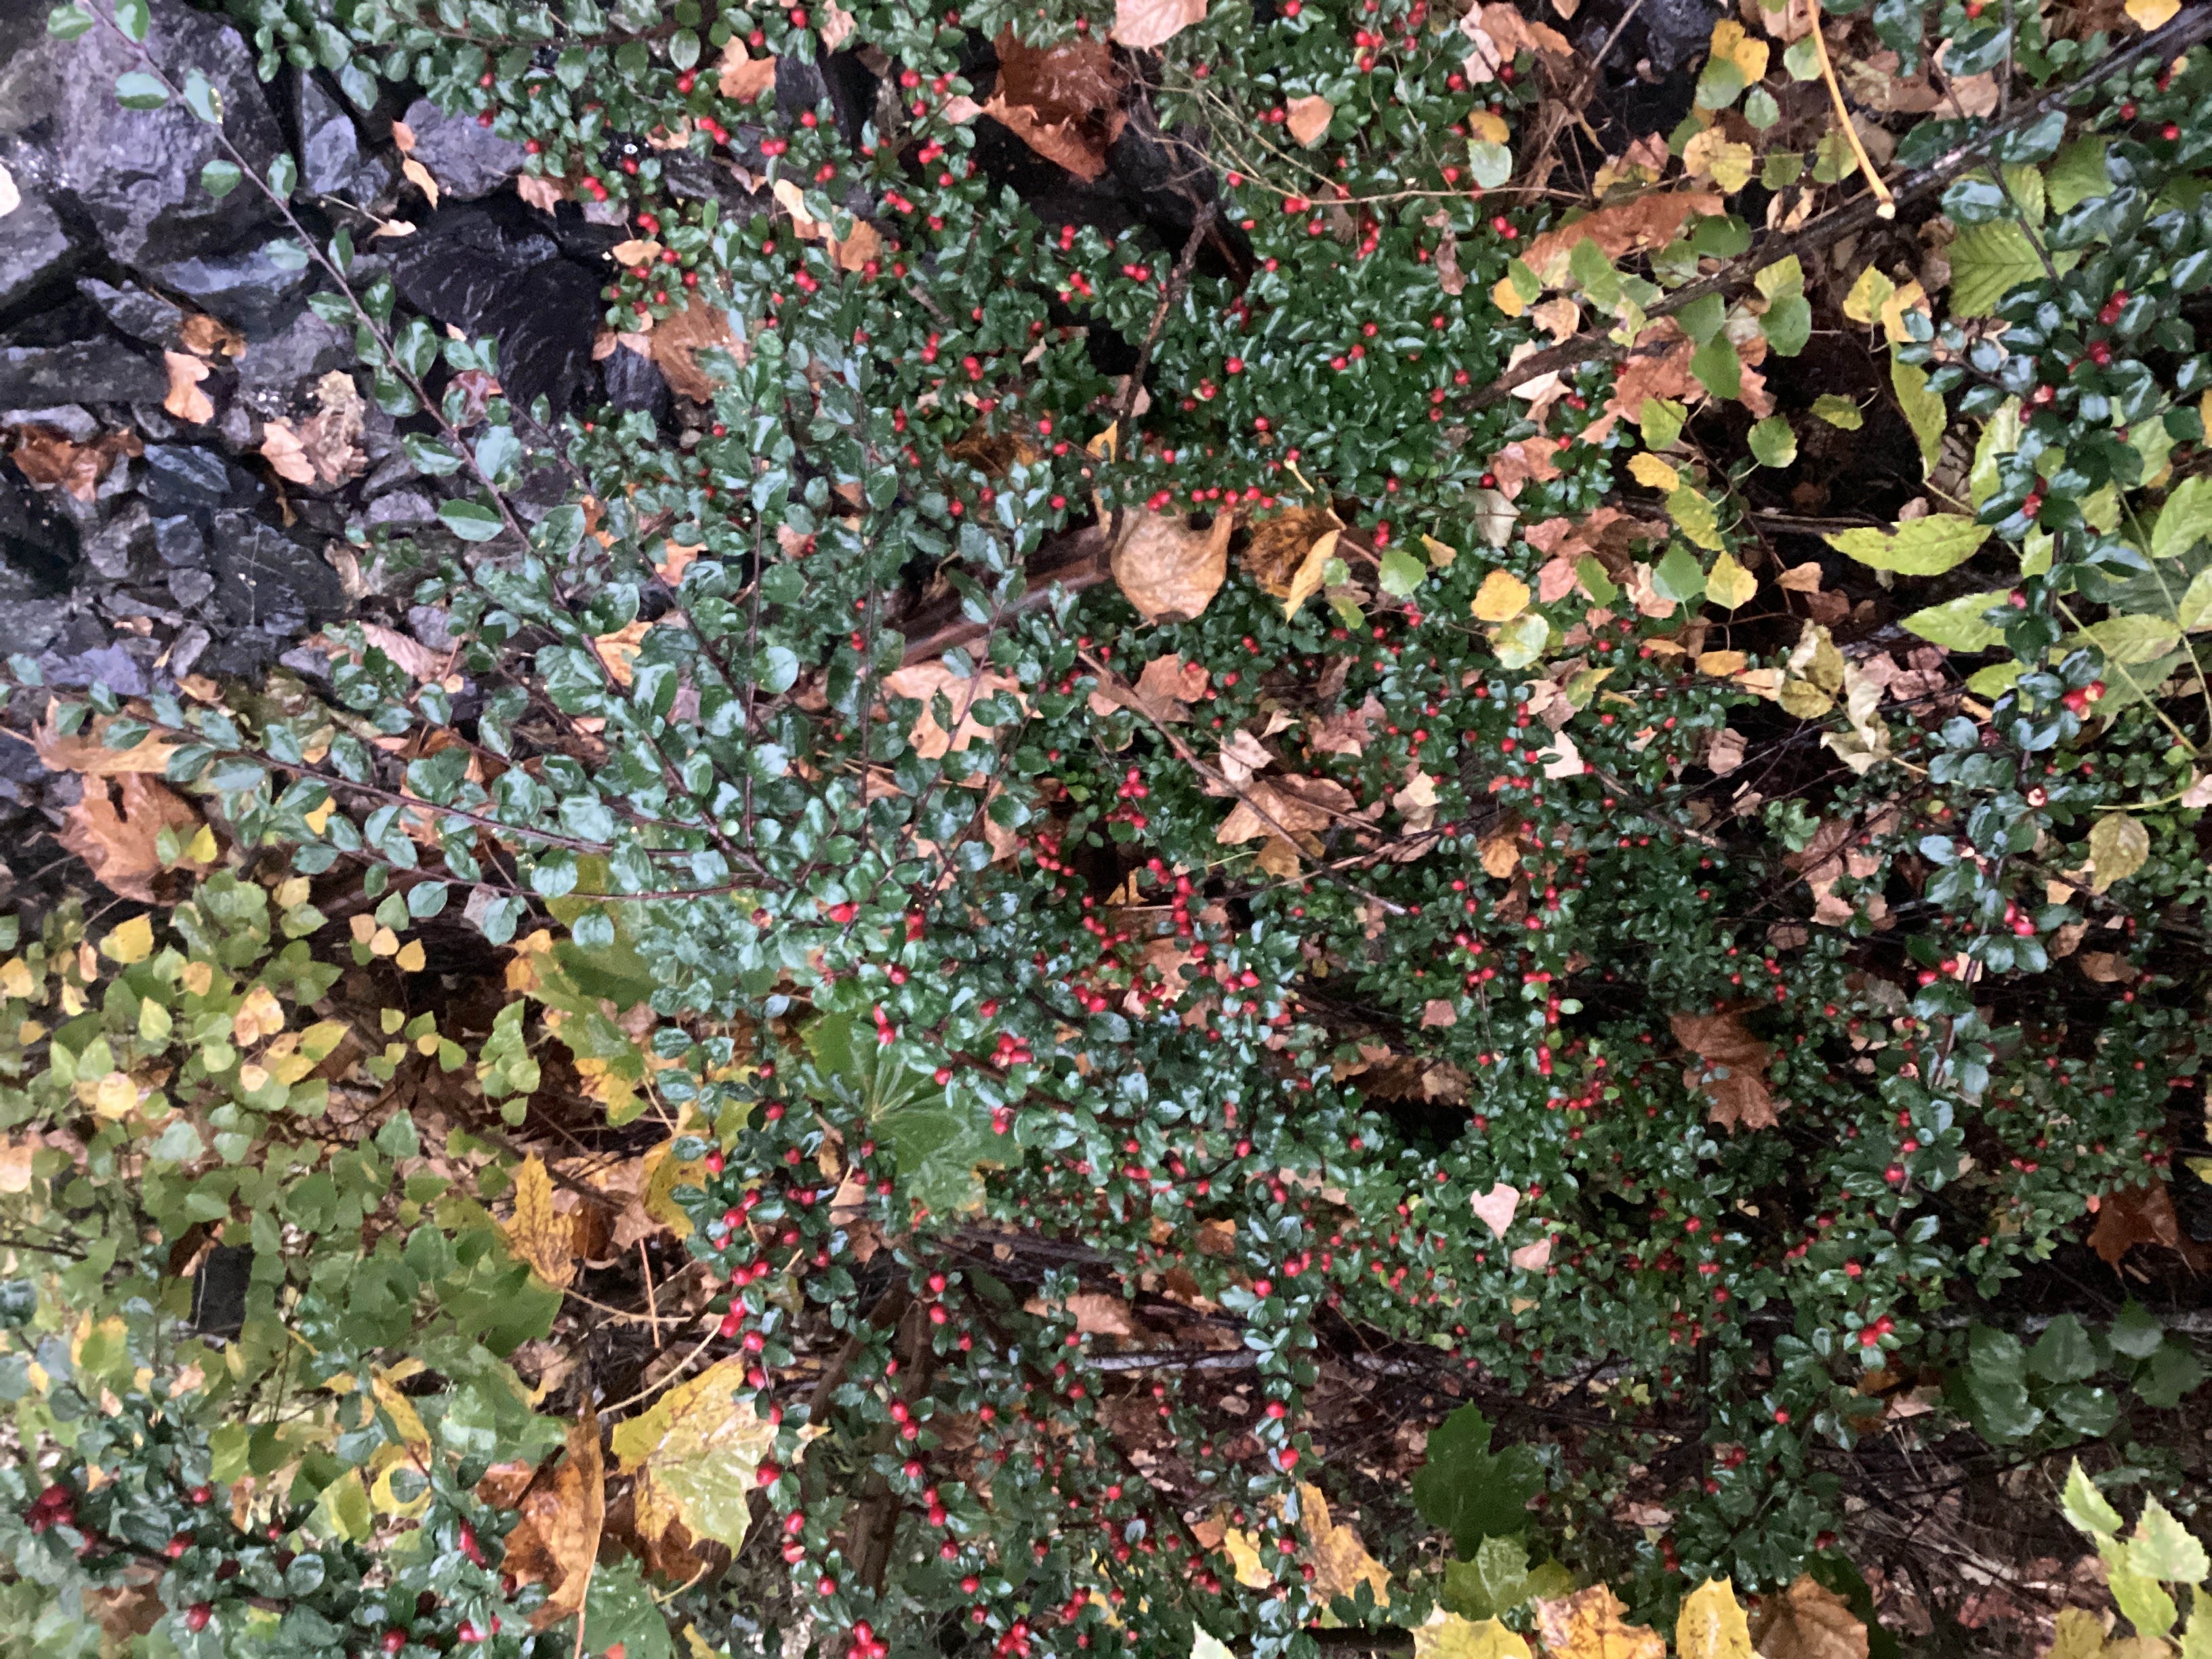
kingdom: Plantae
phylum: Tracheophyta
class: Magnoliopsida
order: Rosales
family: Rosaceae
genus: Cotoneaster
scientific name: Cotoneaster divaricatus
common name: sprikemispel
